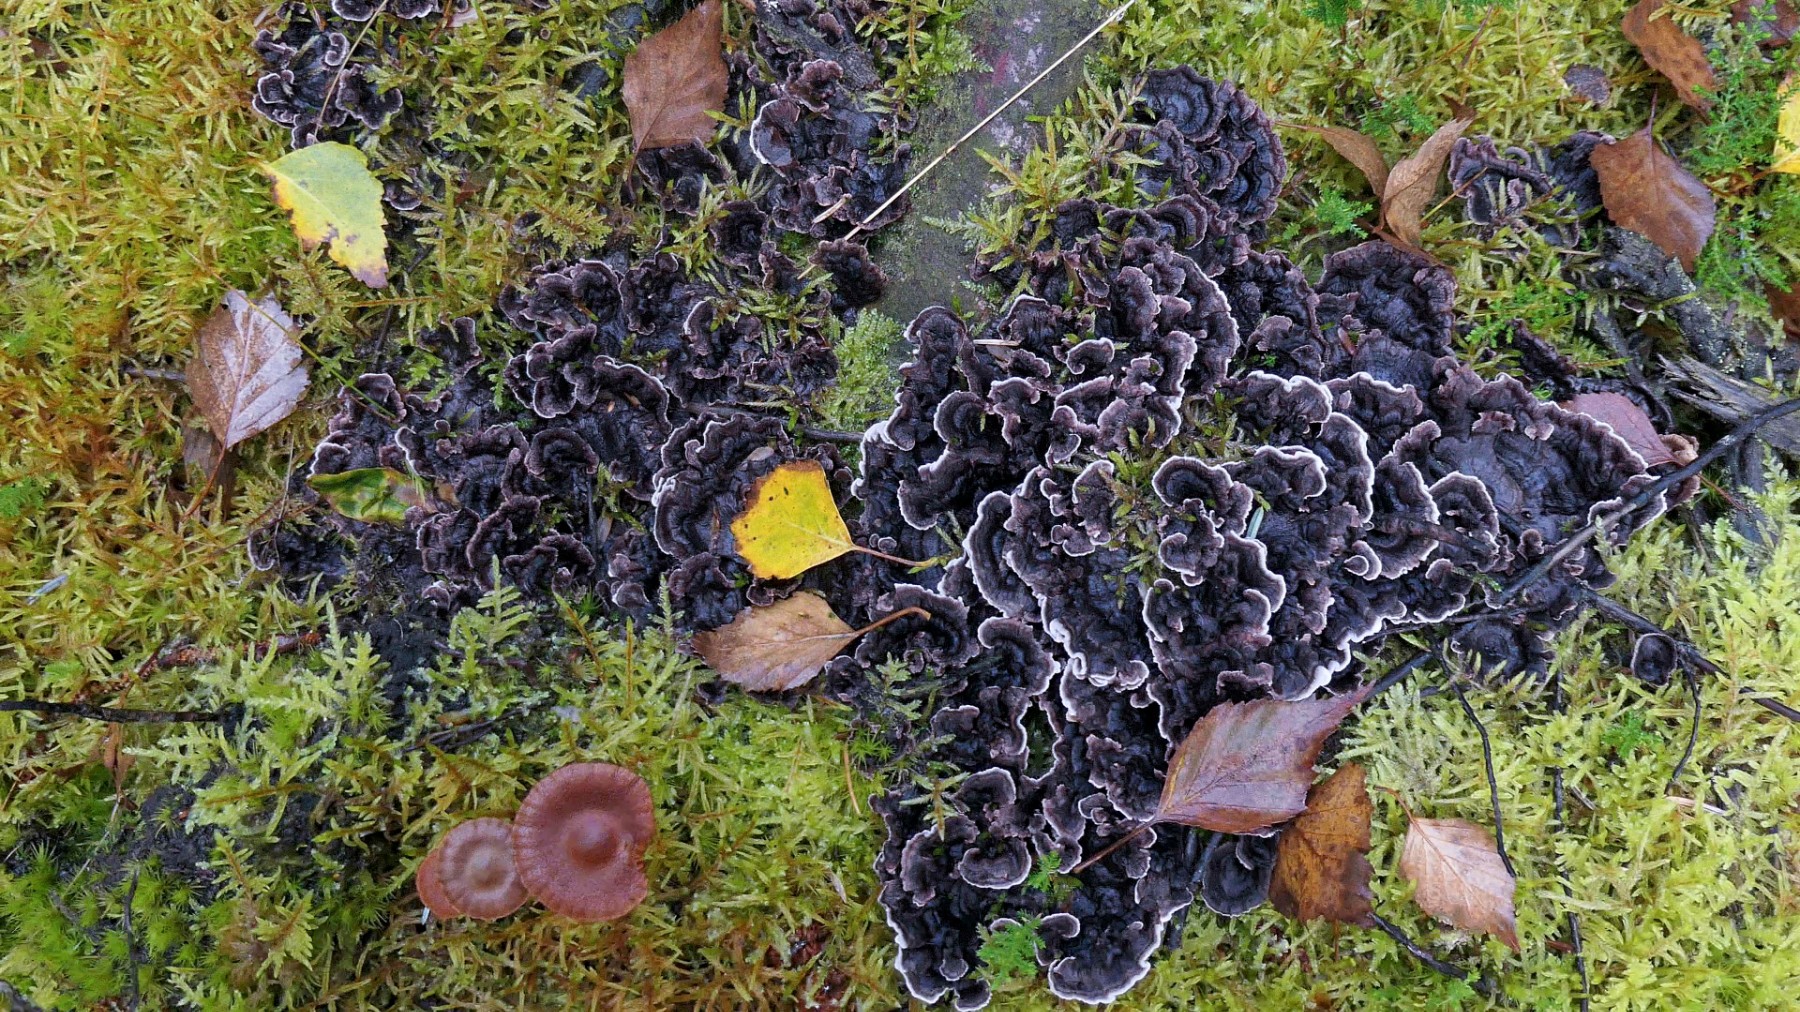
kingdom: Fungi
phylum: Basidiomycota
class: Agaricomycetes
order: Thelephorales
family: Thelephoraceae
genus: Phellodon
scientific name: Phellodon tomentosus
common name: vellugtende duftpigsvamp
